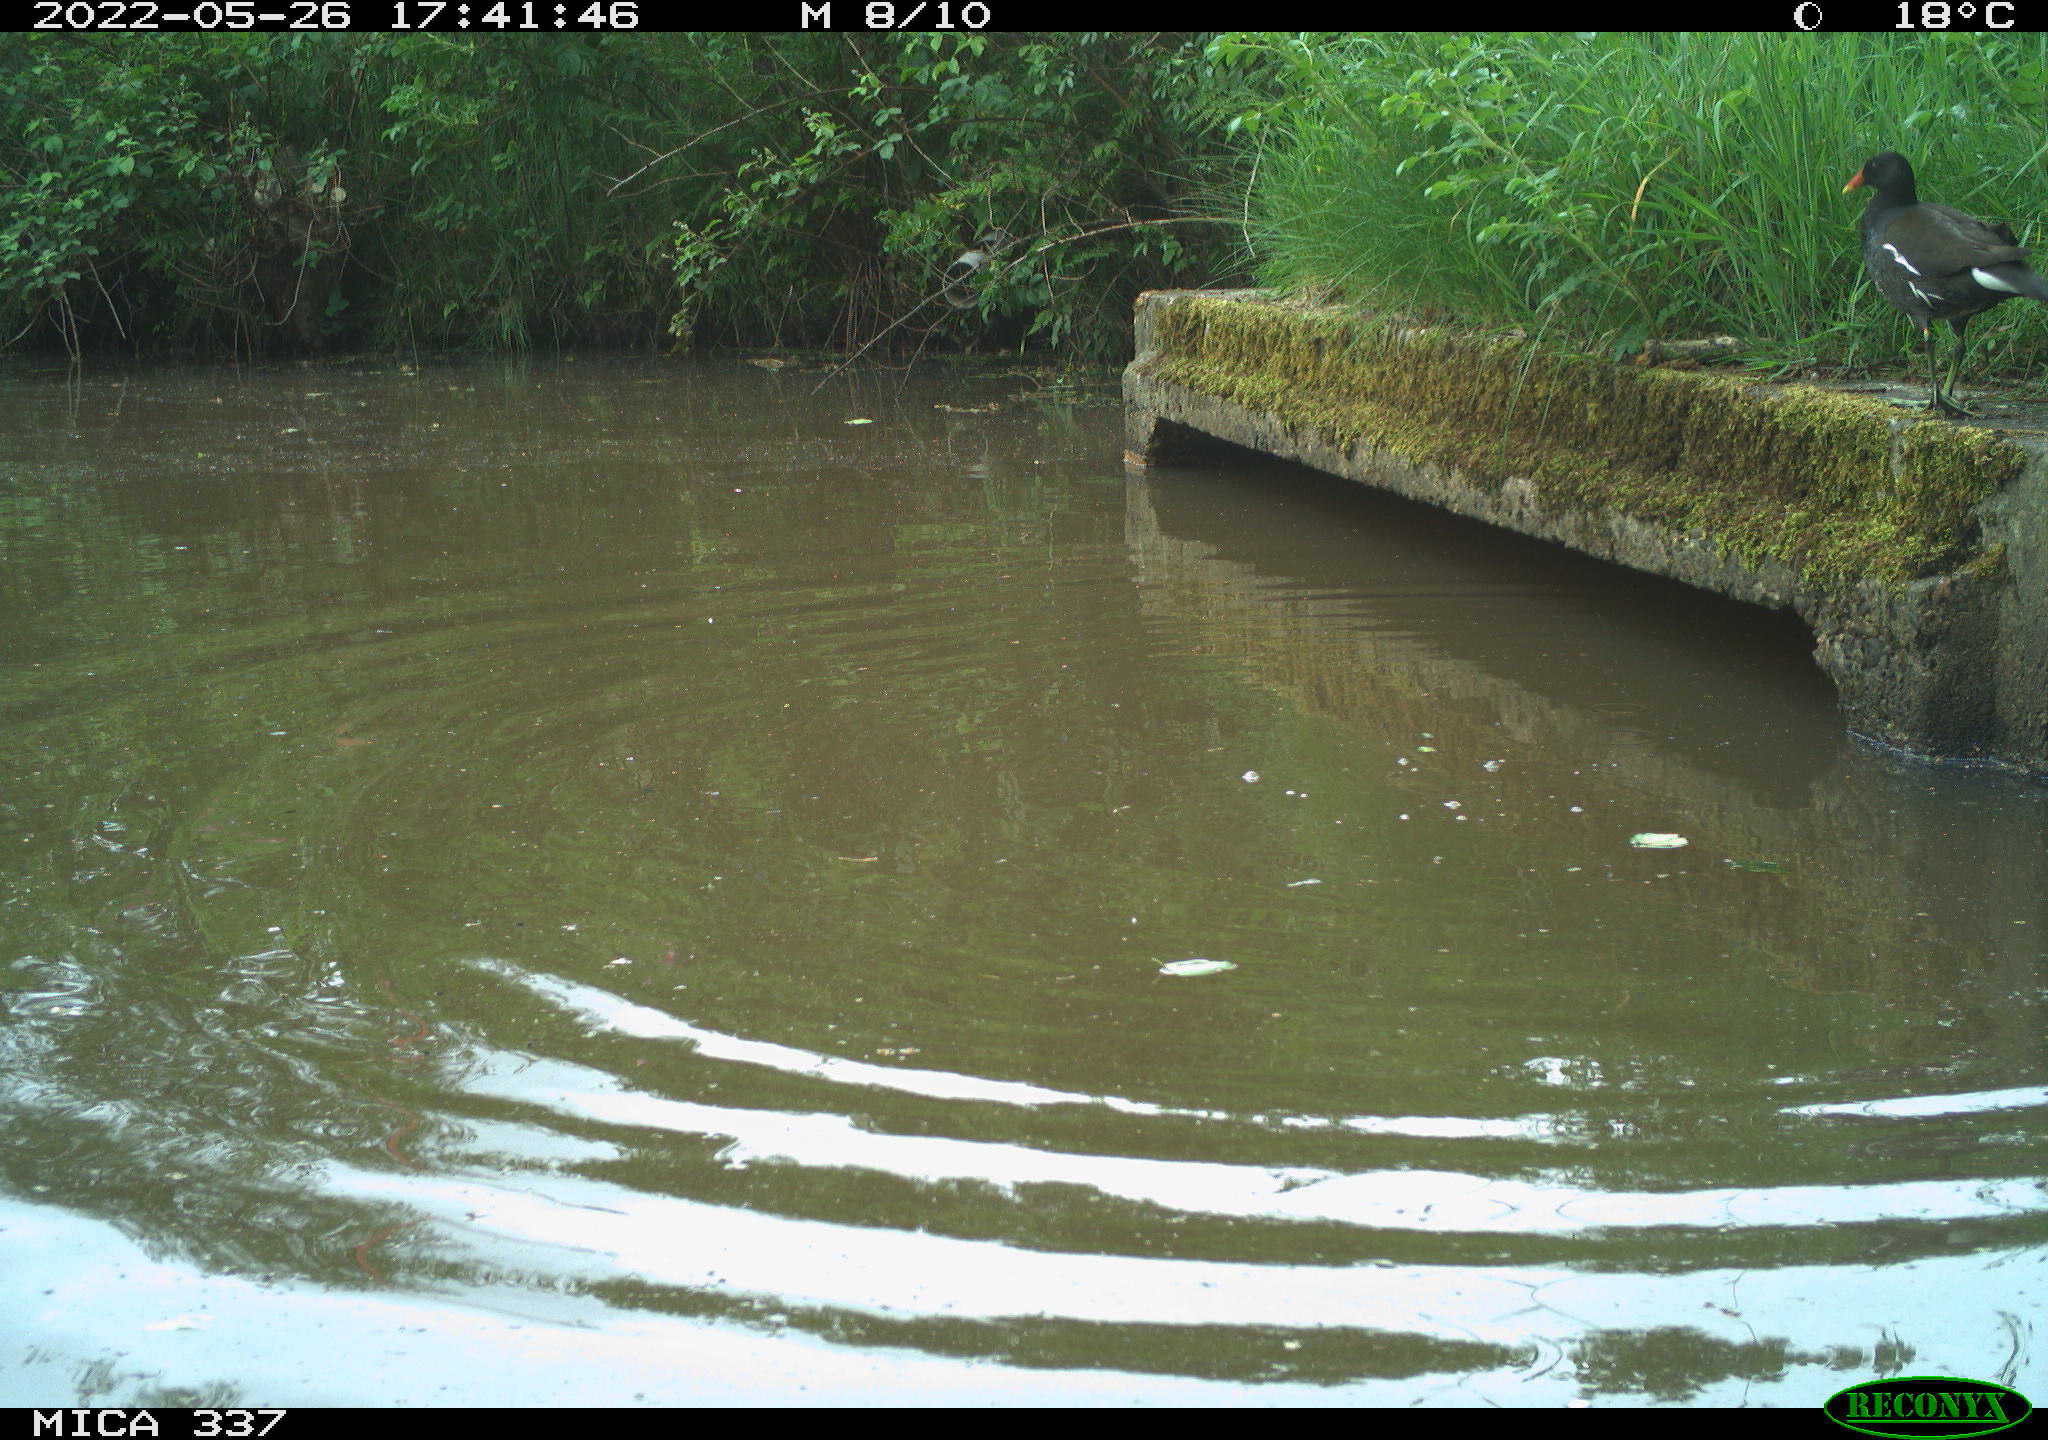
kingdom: Animalia
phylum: Chordata
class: Aves
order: Gruiformes
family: Rallidae
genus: Gallinula
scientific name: Gallinula chloropus
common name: Common moorhen
